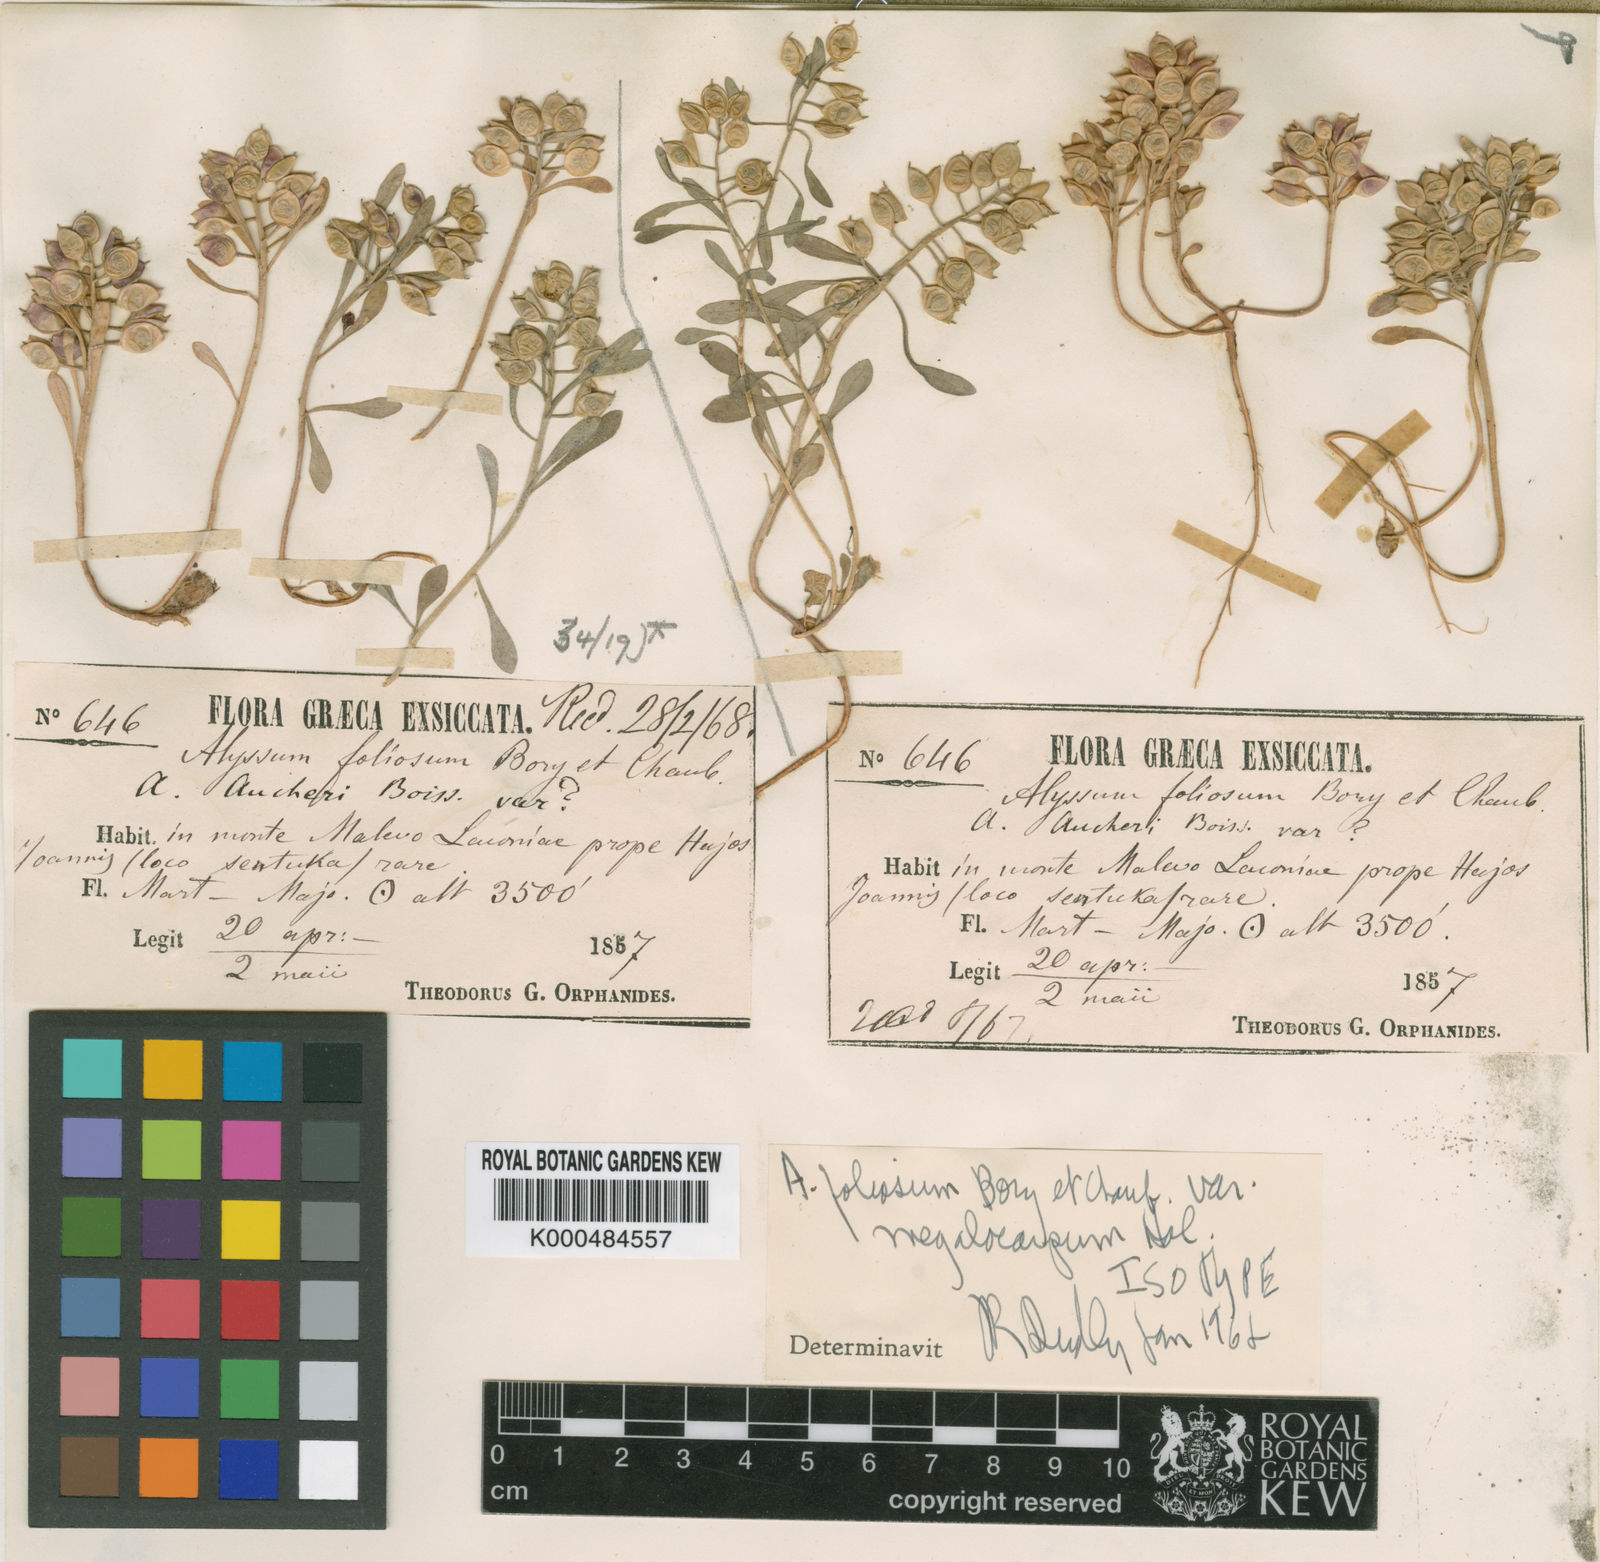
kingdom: Plantae
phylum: Tracheophyta
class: Magnoliopsida
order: Brassicales
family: Brassicaceae
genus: Alyssum
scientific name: Alyssum foliosum
